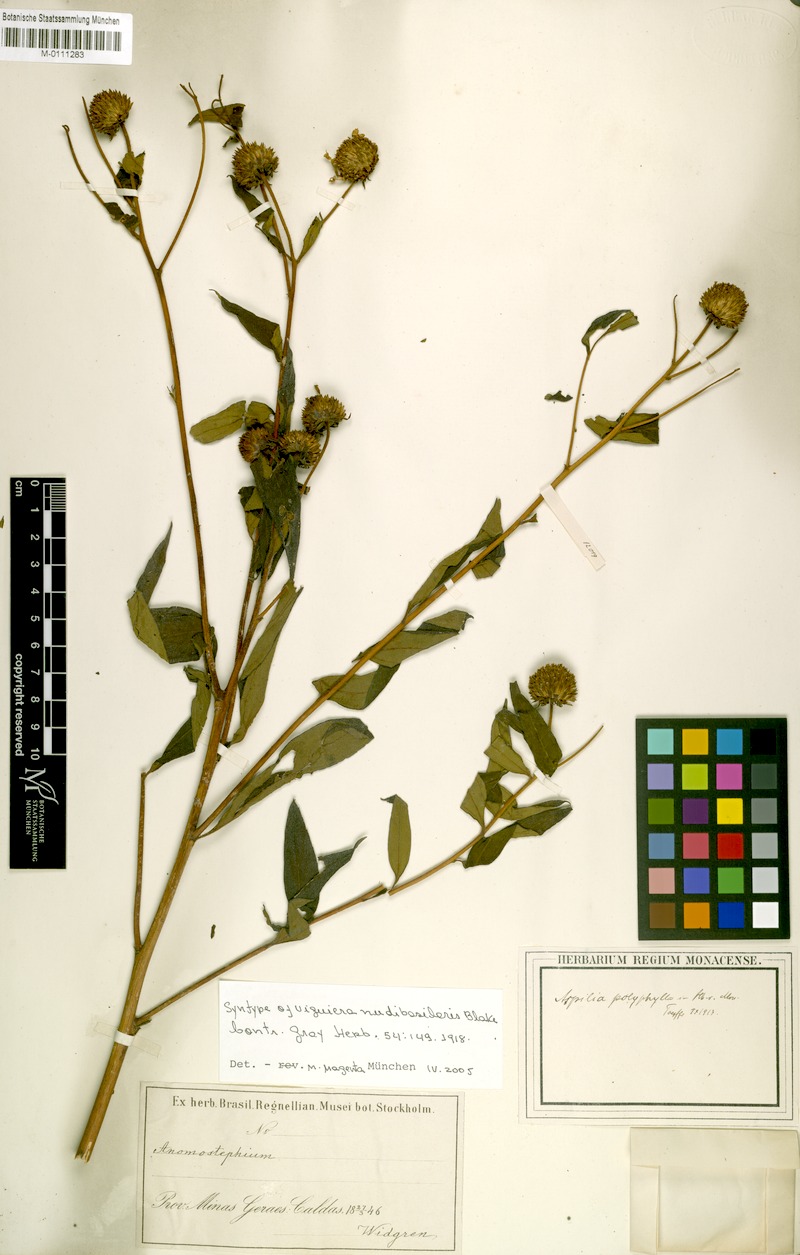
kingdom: Plantae
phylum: Tracheophyta
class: Magnoliopsida
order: Asterales
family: Asteraceae
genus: Aldama
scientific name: Aldama nudibasilaris
